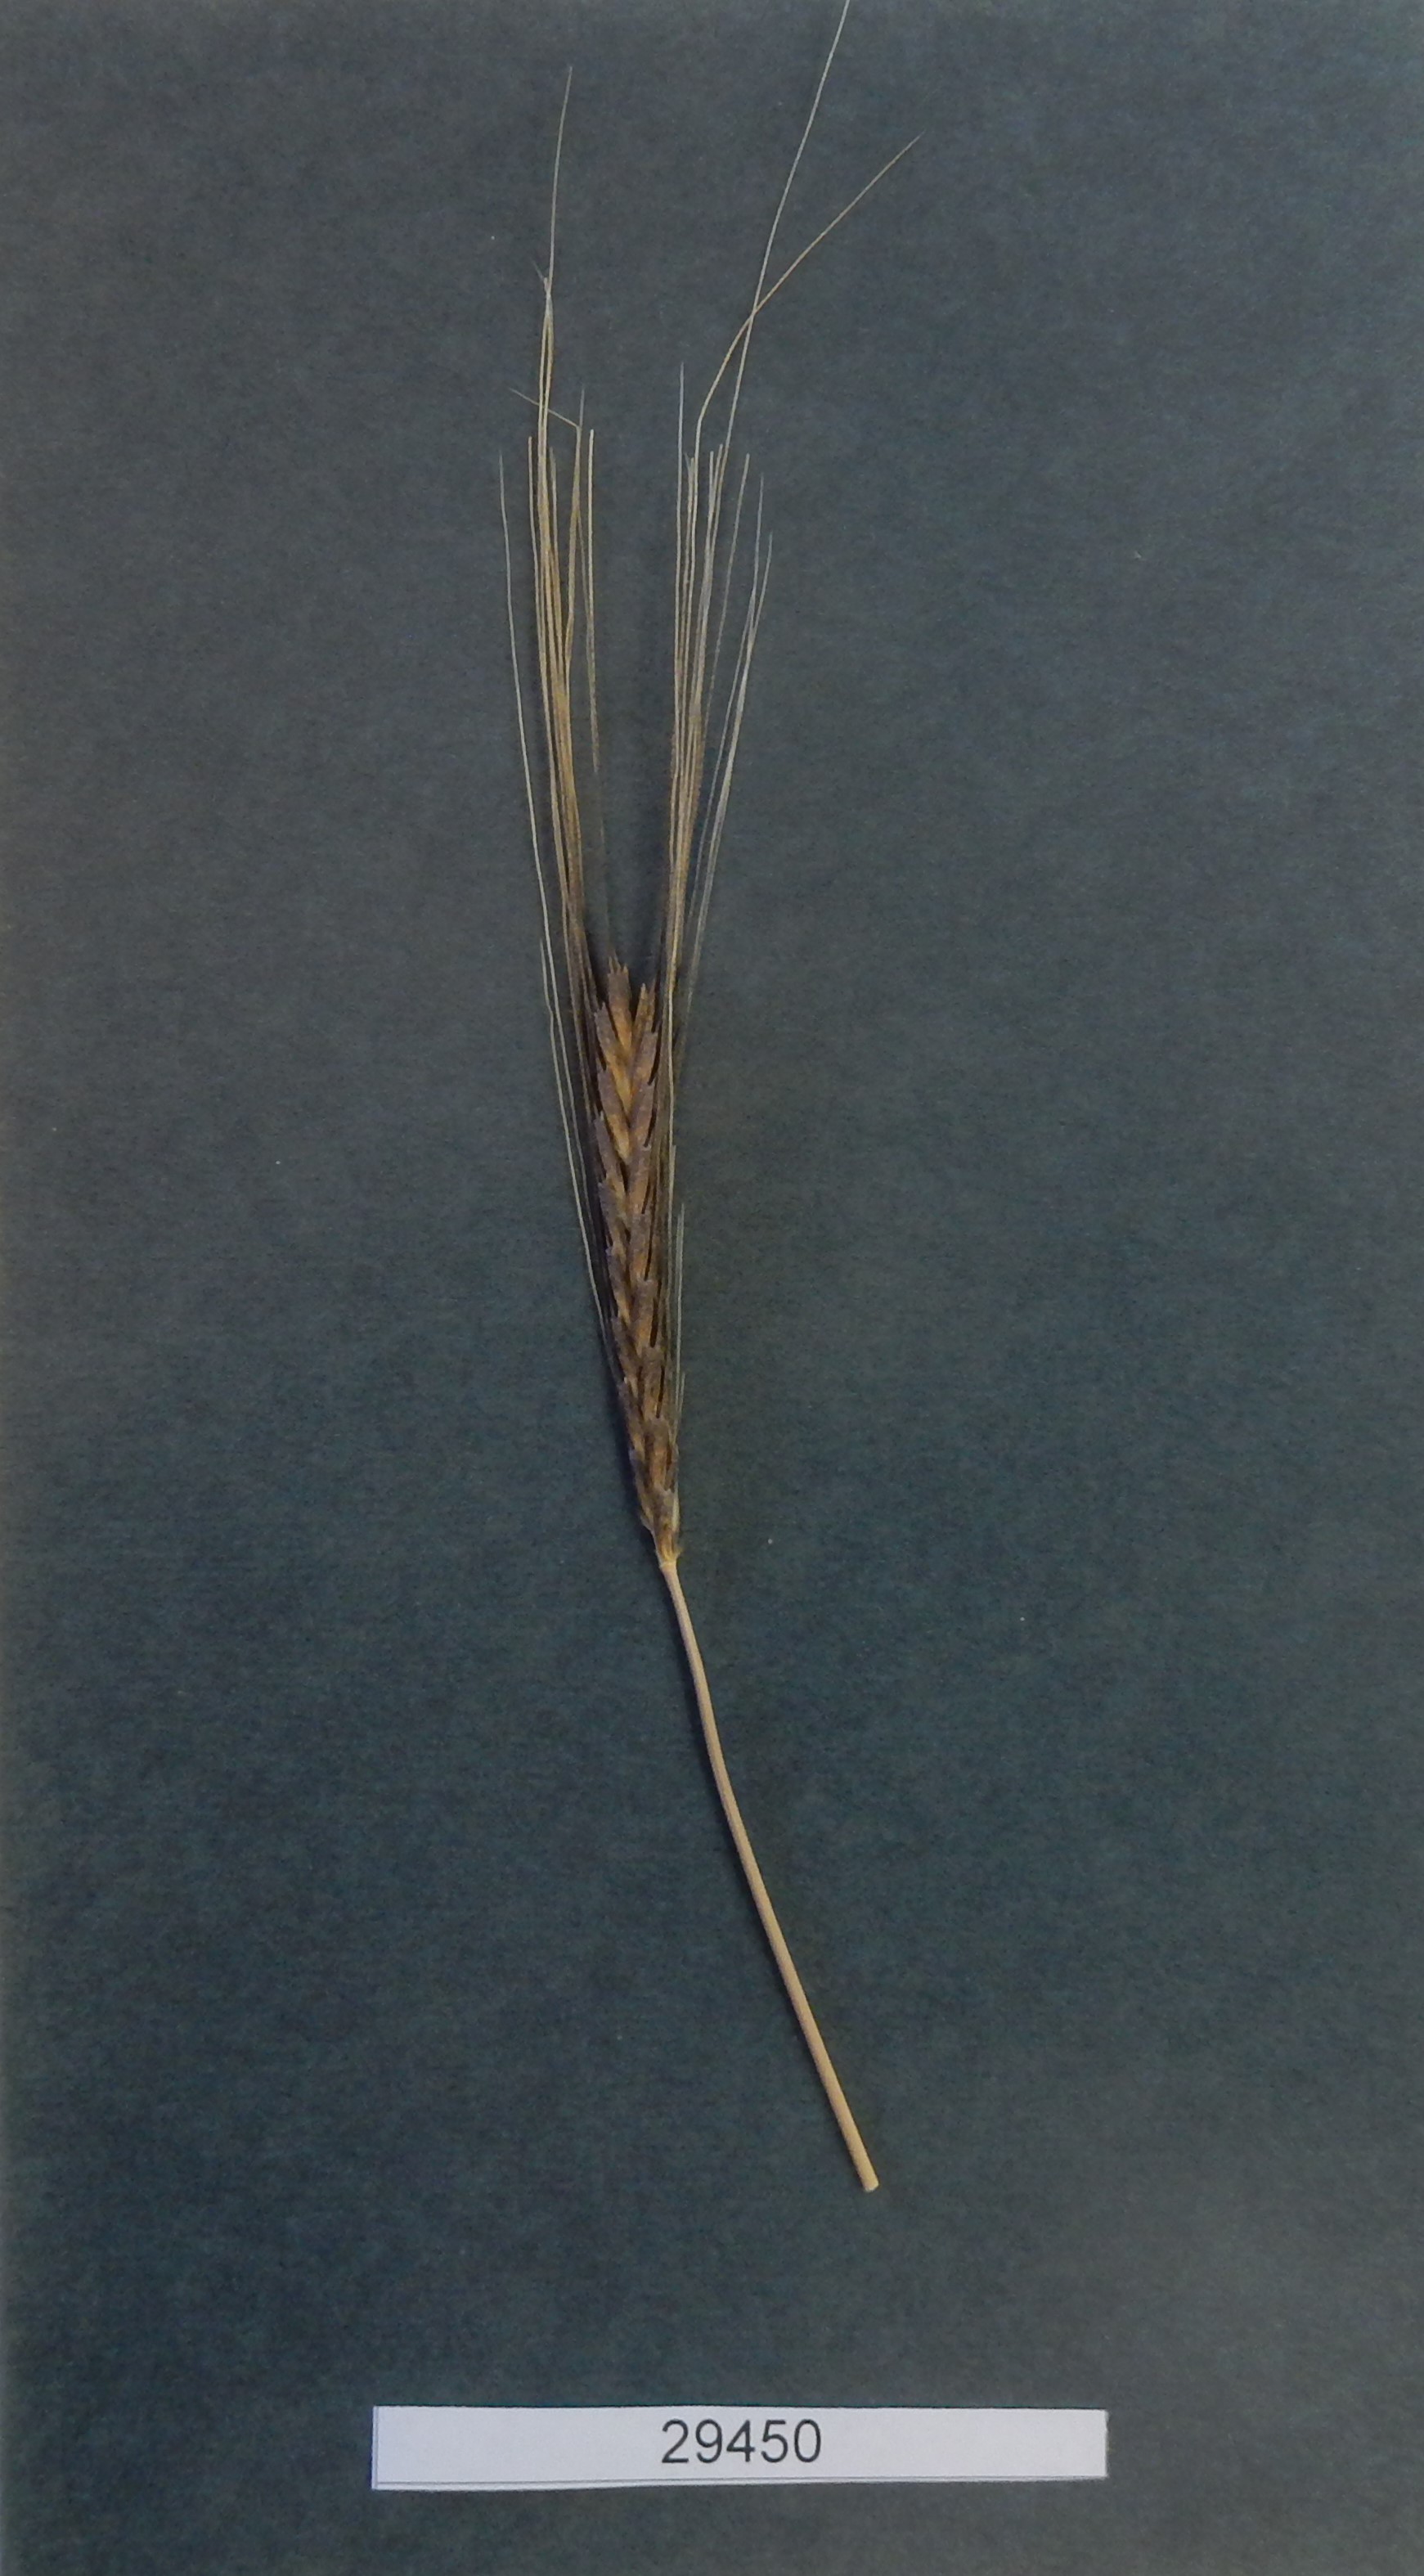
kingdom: Plantae
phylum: Tracheophyta
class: Liliopsida
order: Poales
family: Poaceae
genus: Triticum
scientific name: Triticum monococcum
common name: Wheat
